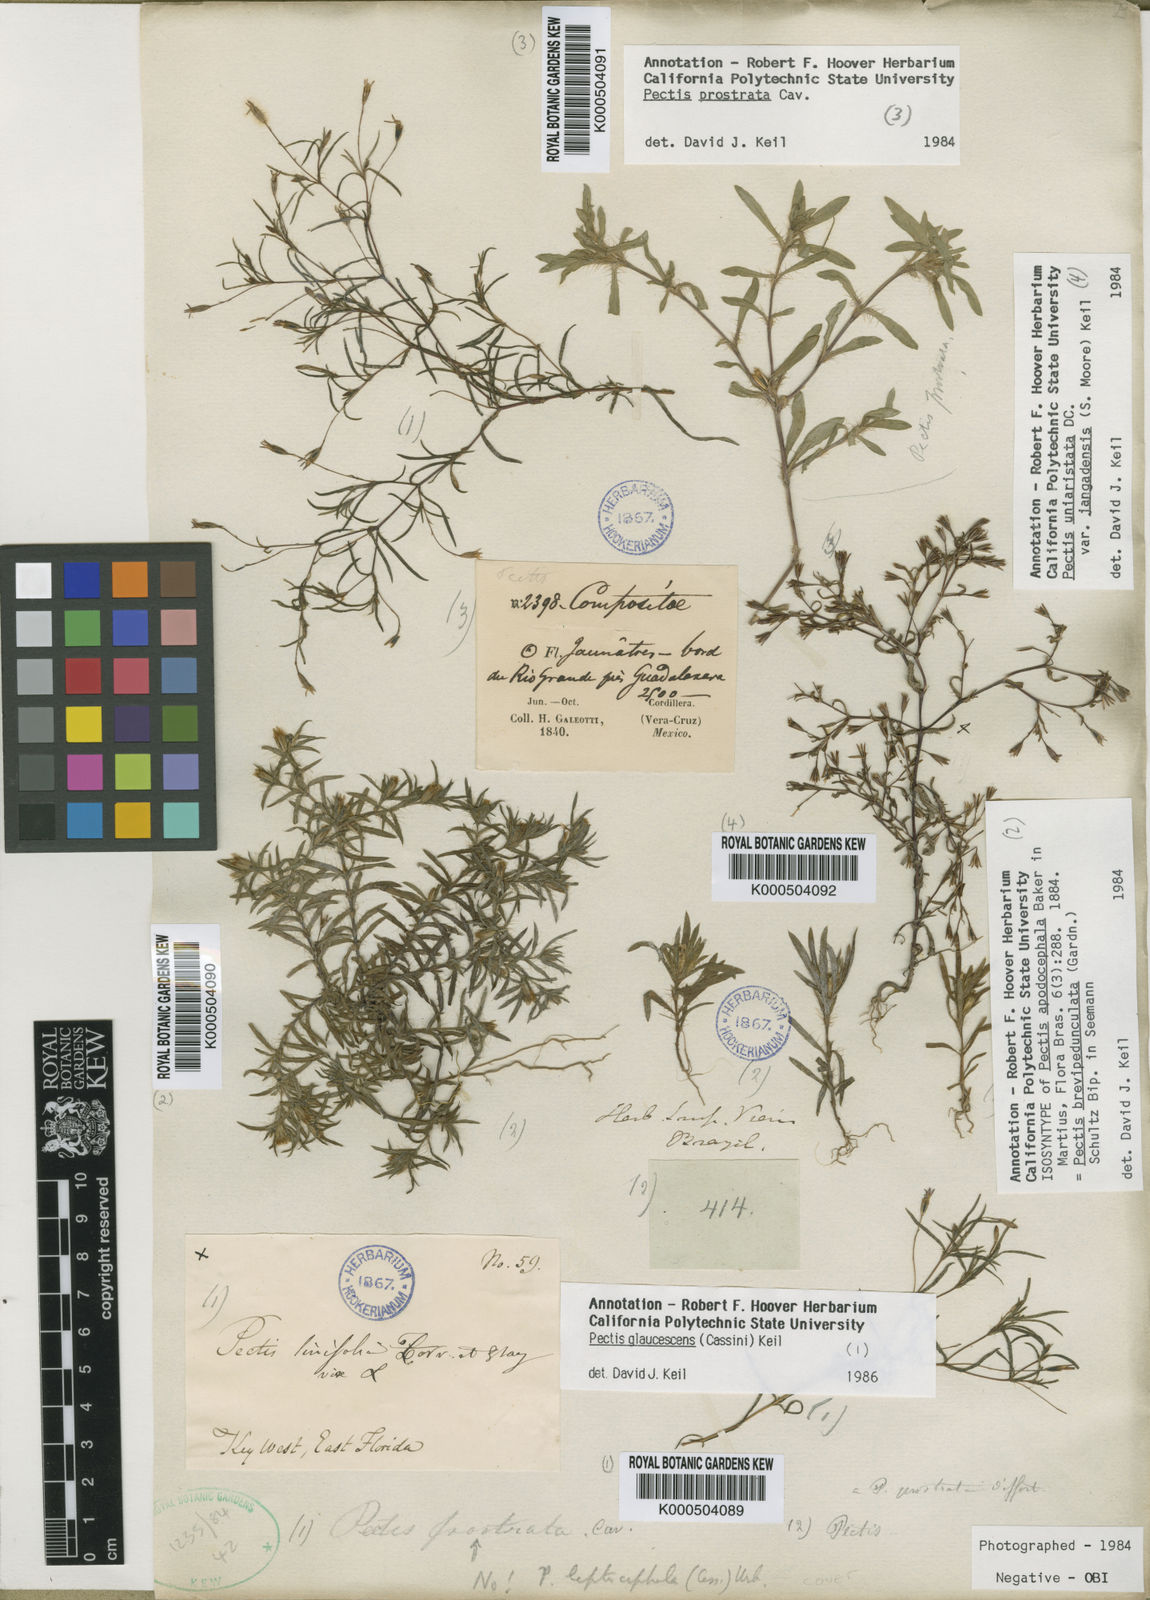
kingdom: Plantae
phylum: Tracheophyta
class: Magnoliopsida
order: Asterales
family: Asteraceae
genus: Pectis
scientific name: Pectis brevipedunculata
